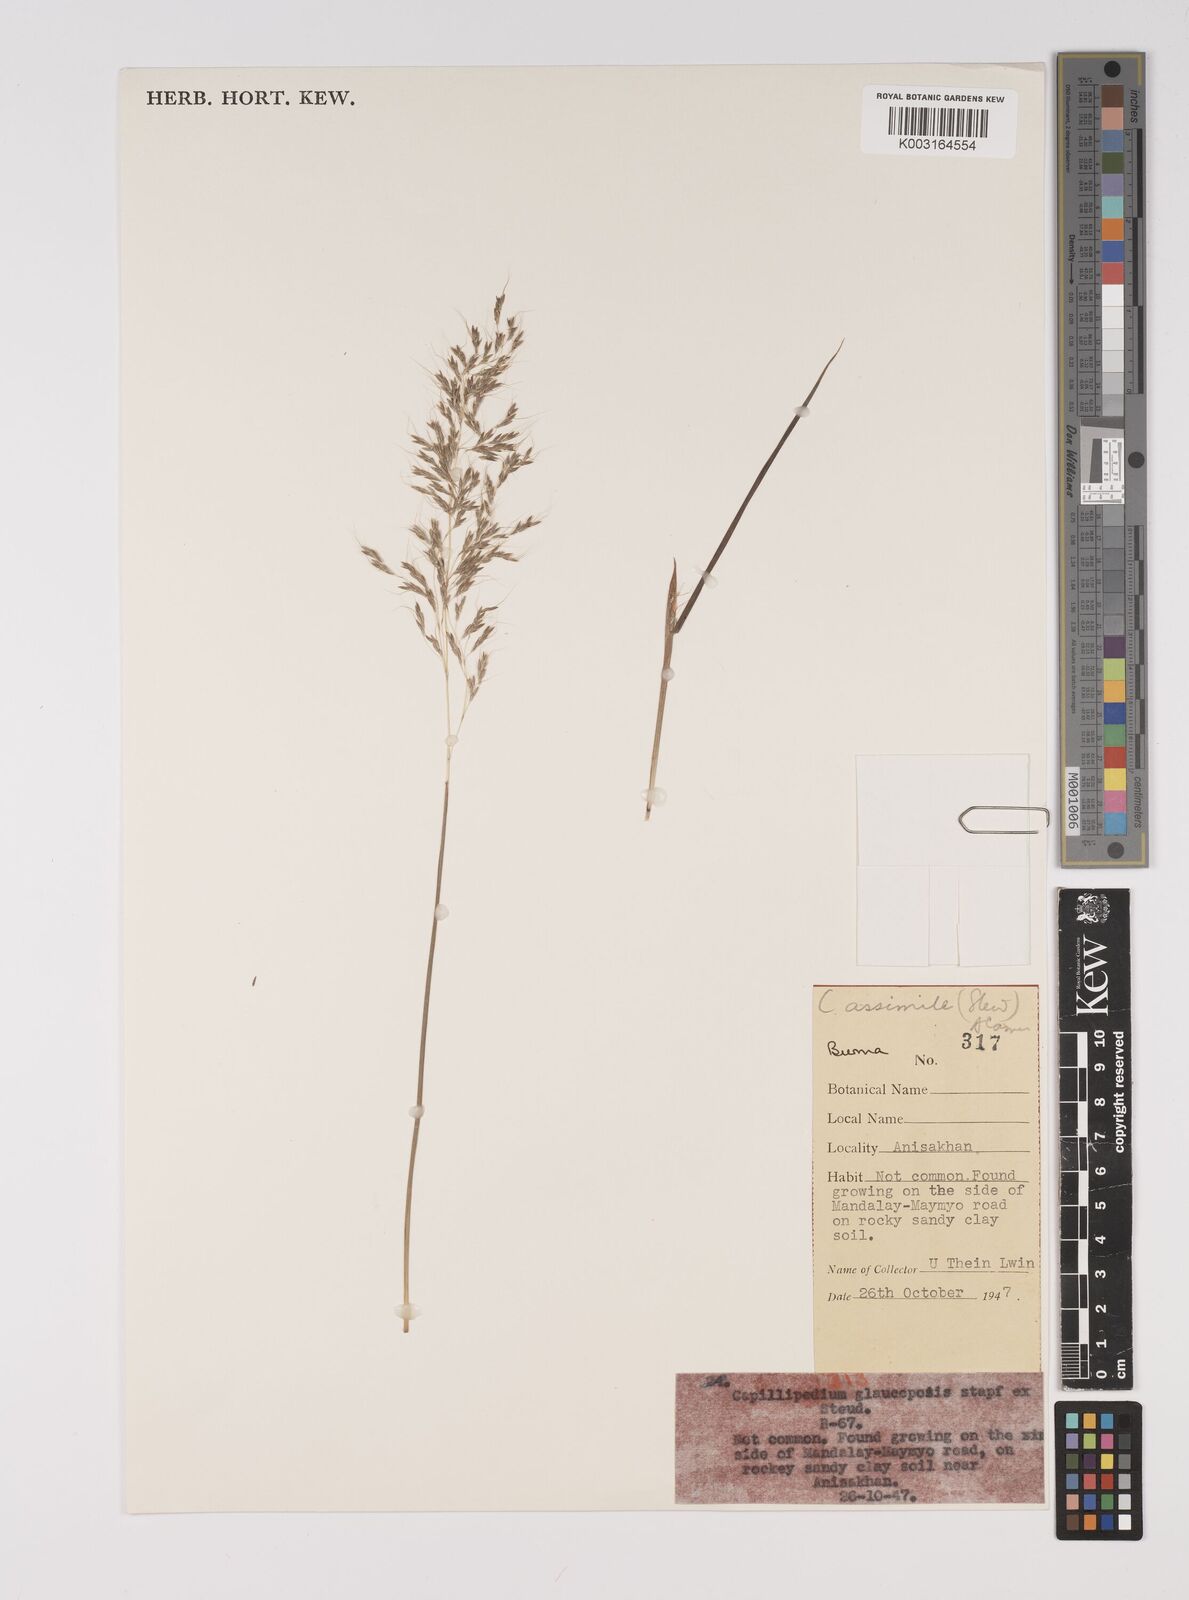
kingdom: Plantae
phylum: Tracheophyta
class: Liliopsida
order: Poales
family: Poaceae
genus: Capillipedium
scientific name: Capillipedium huegelii
